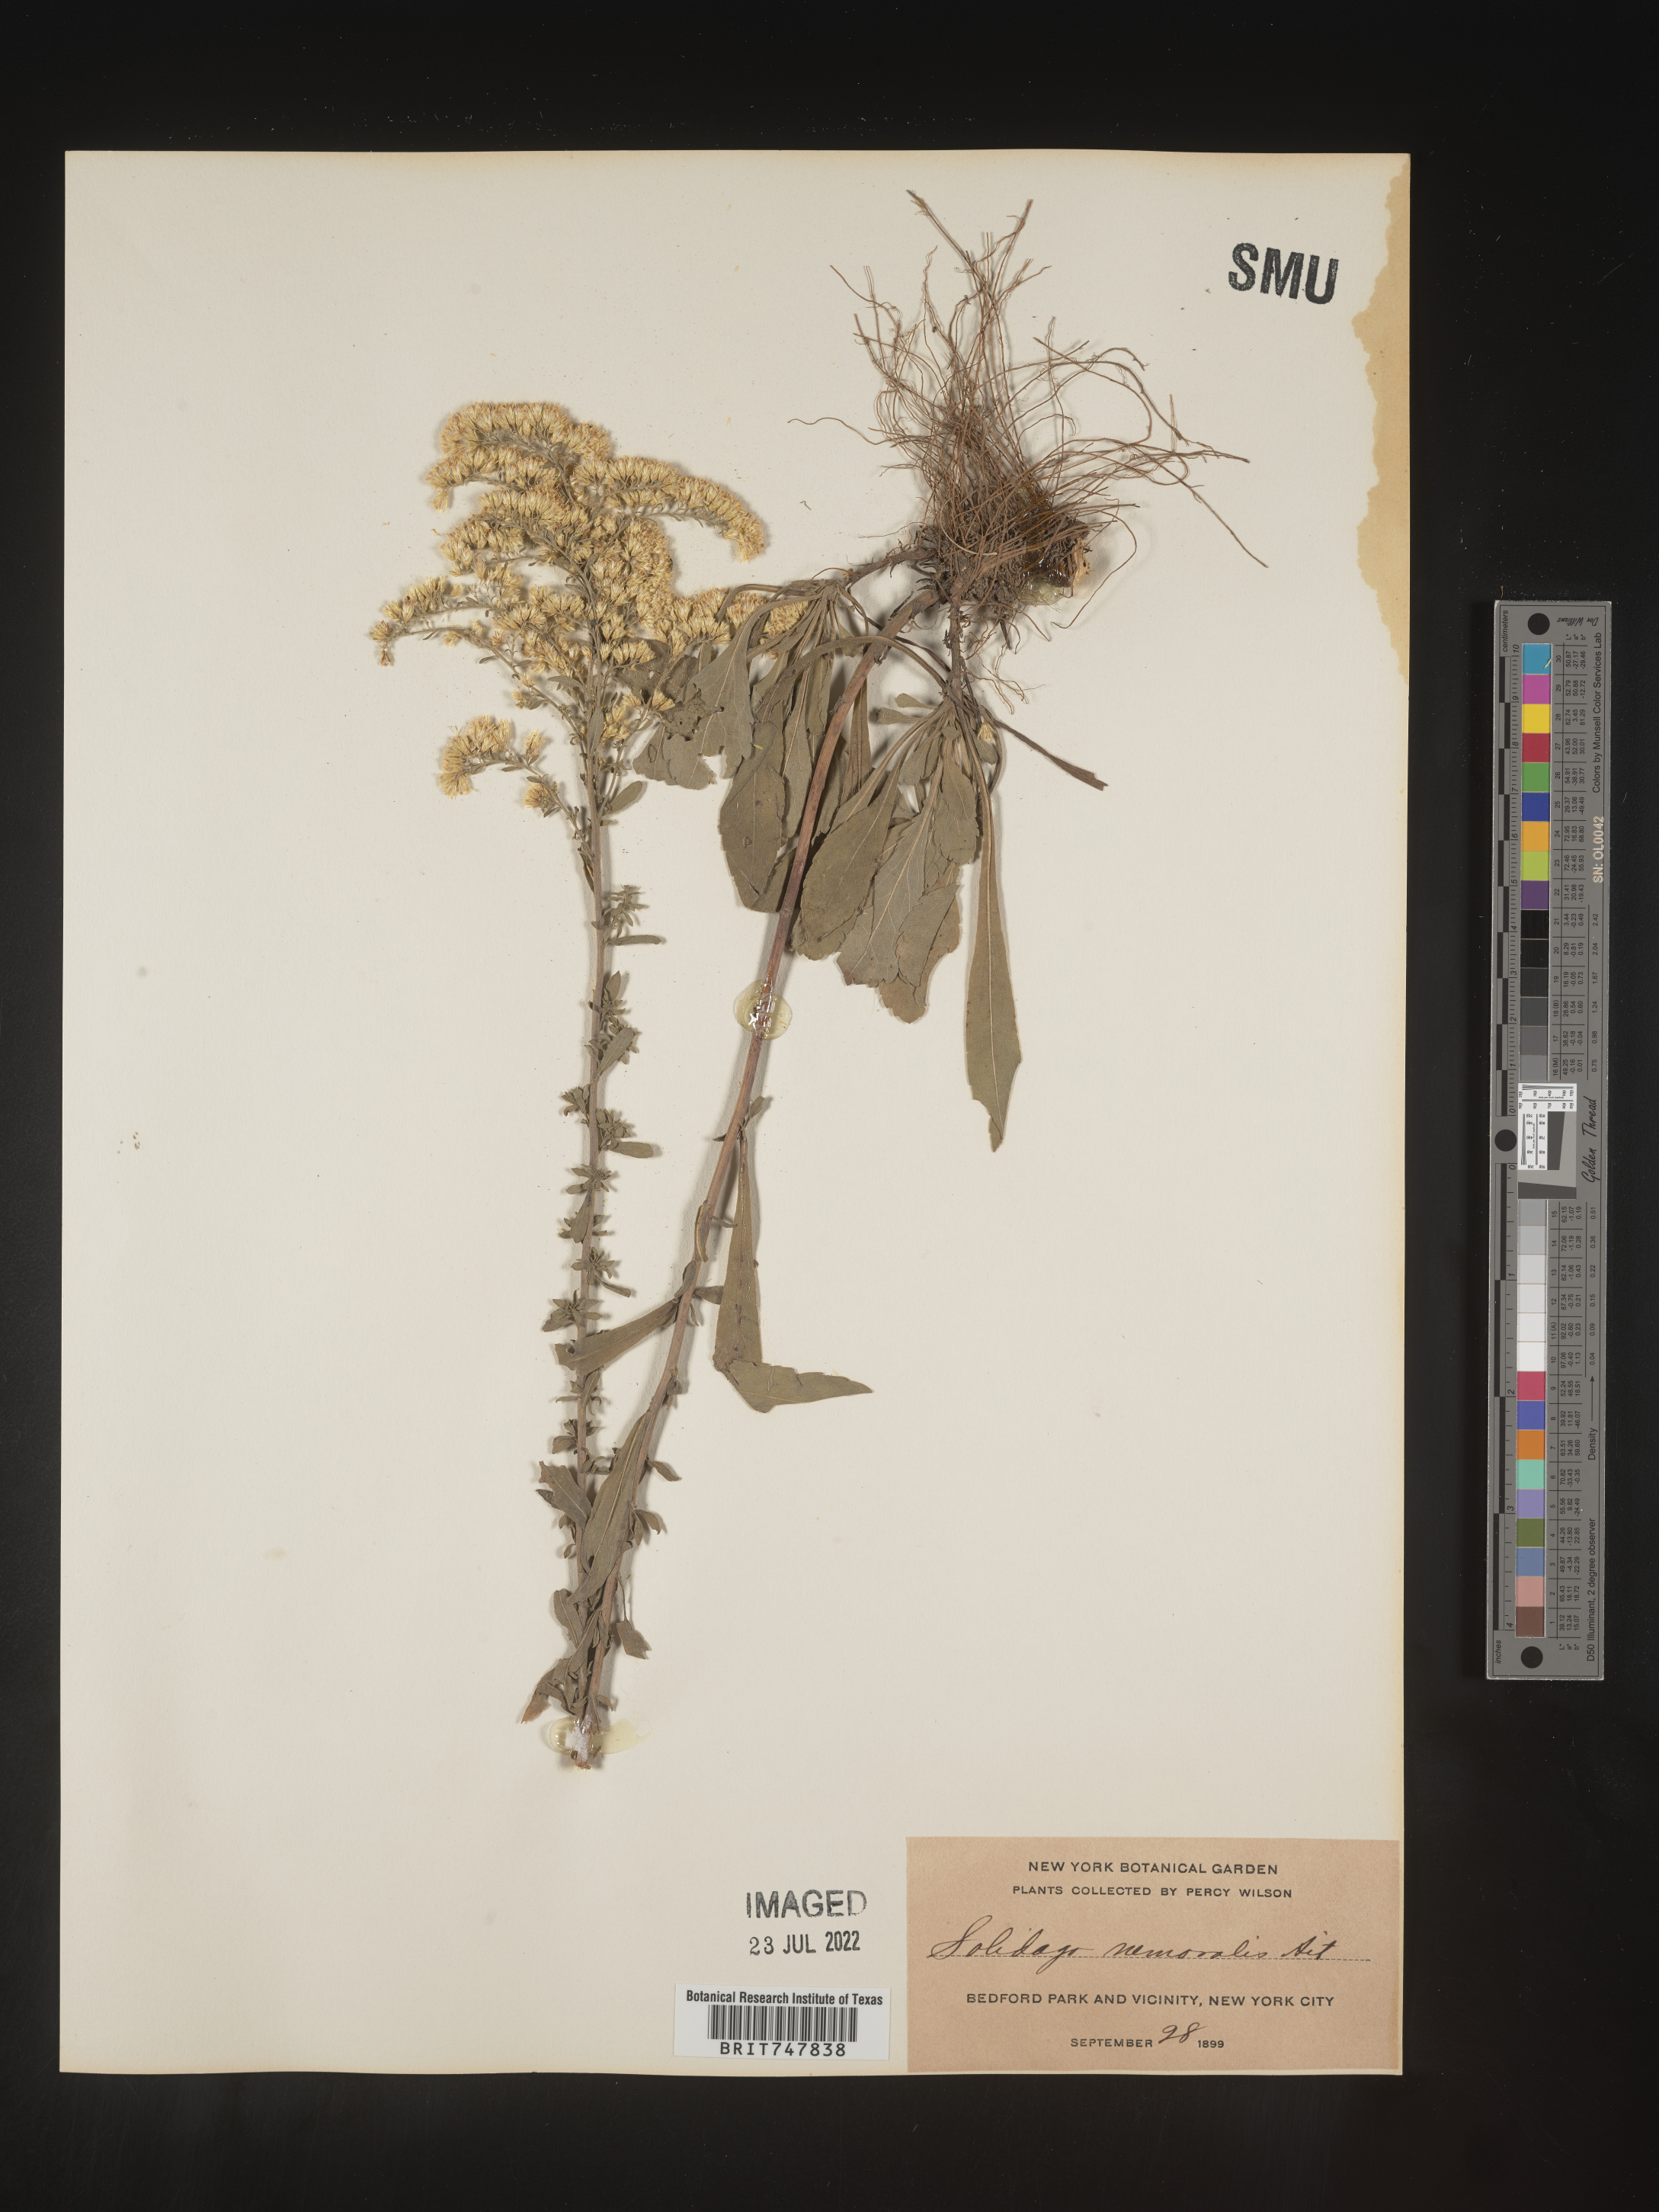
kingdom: Plantae
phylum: Tracheophyta
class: Magnoliopsida
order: Asterales
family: Asteraceae
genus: Solidago
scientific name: Solidago nemoralis
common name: Grey goldenrod
